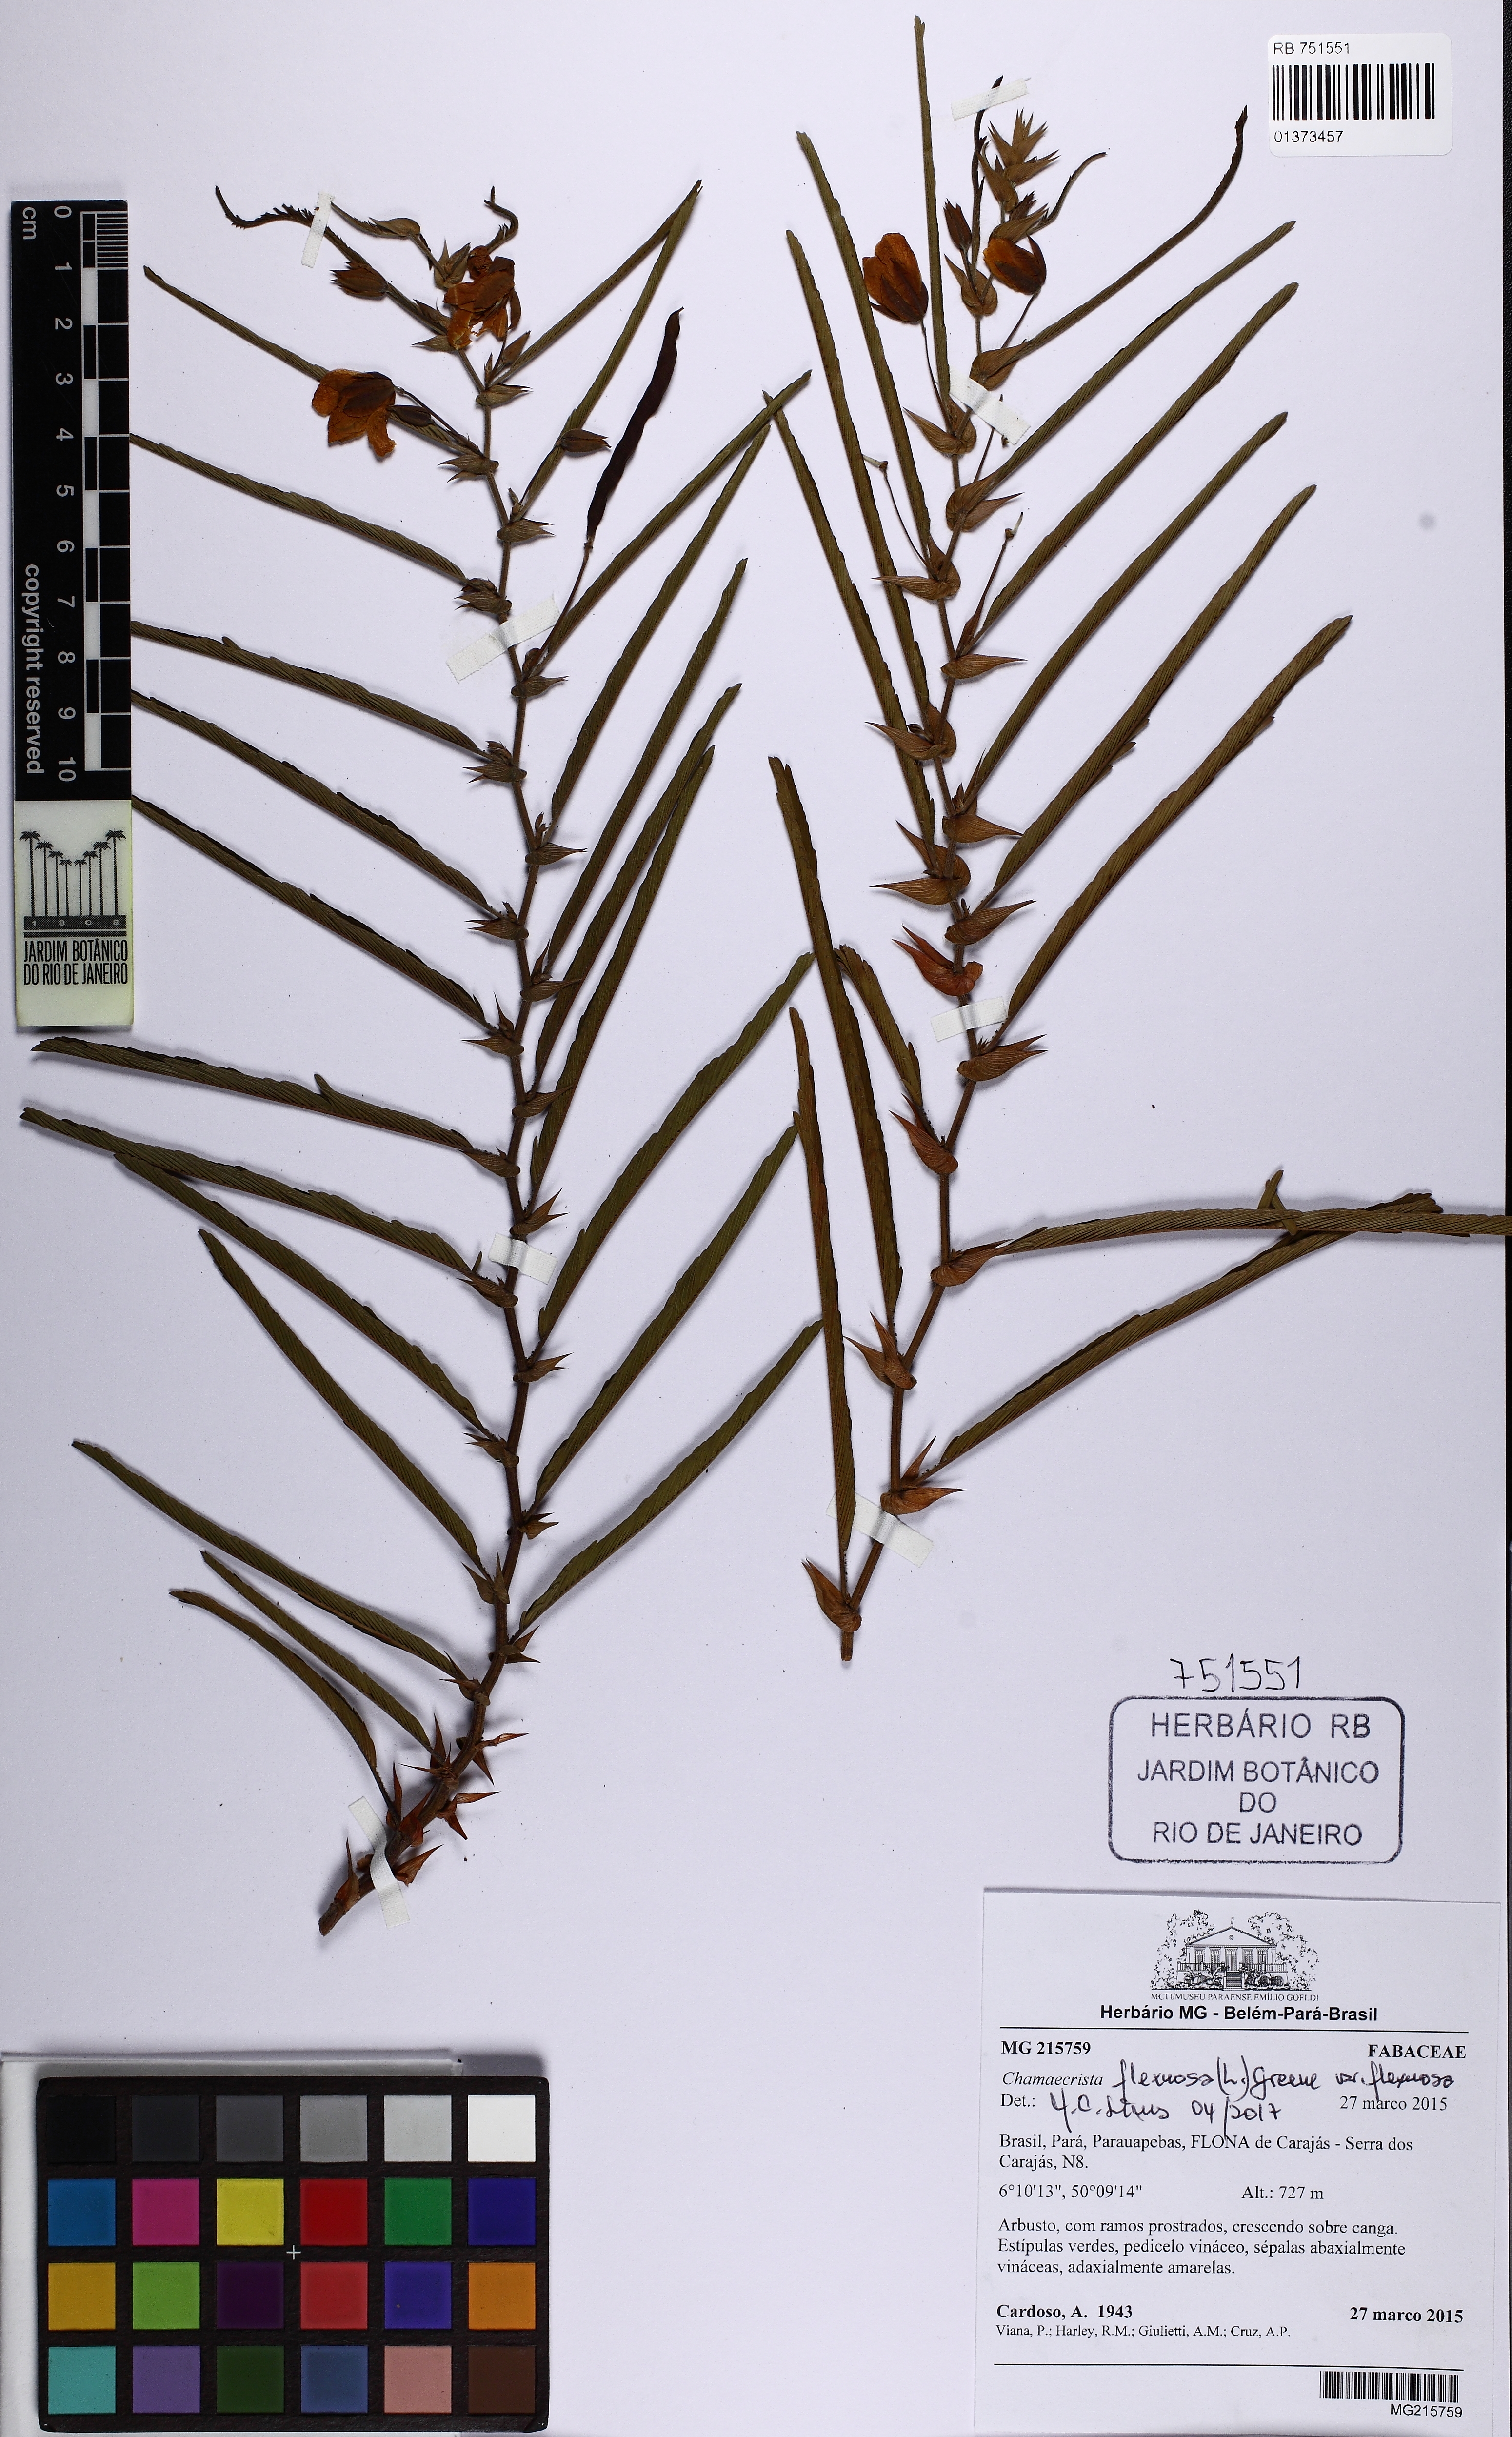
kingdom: Plantae
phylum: Tracheophyta
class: Magnoliopsida
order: Fabales
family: Fabaceae
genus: Chamaecrista
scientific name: Chamaecrista flexuosa
